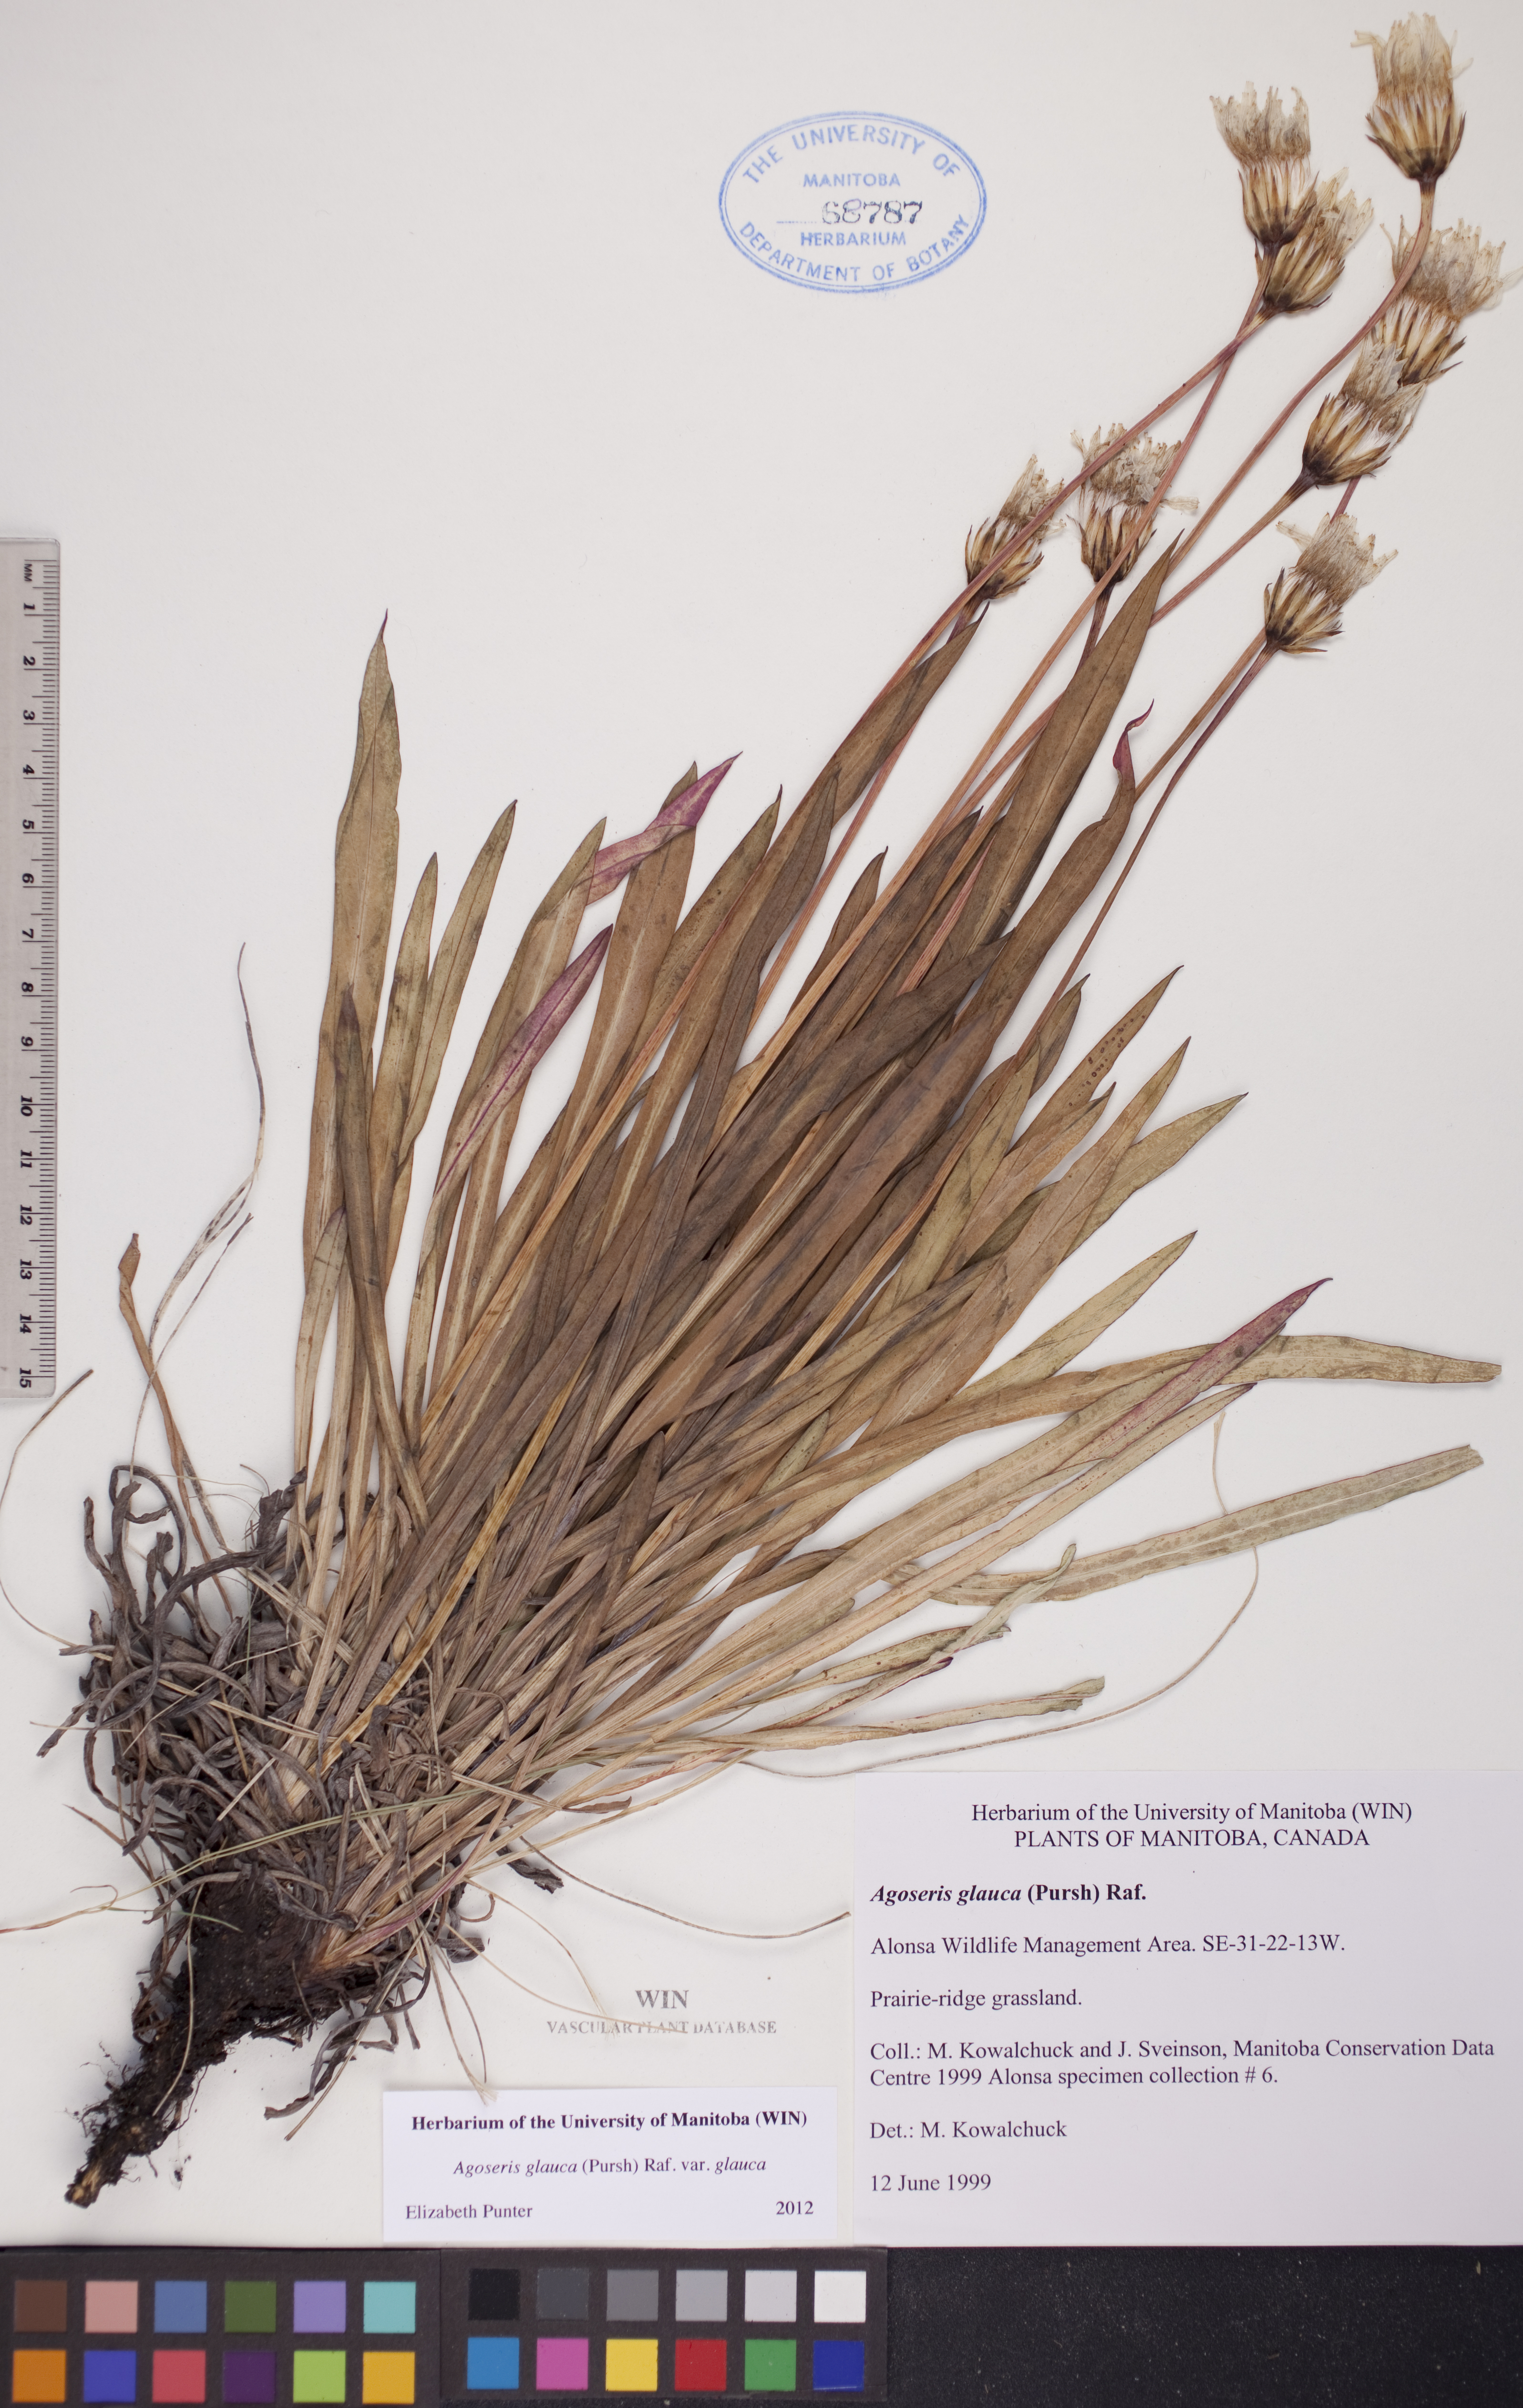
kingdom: Plantae
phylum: Tracheophyta
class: Magnoliopsida
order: Asterales
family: Asteraceae
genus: Agoseris
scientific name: Agoseris glauca
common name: Prairie agoseris
